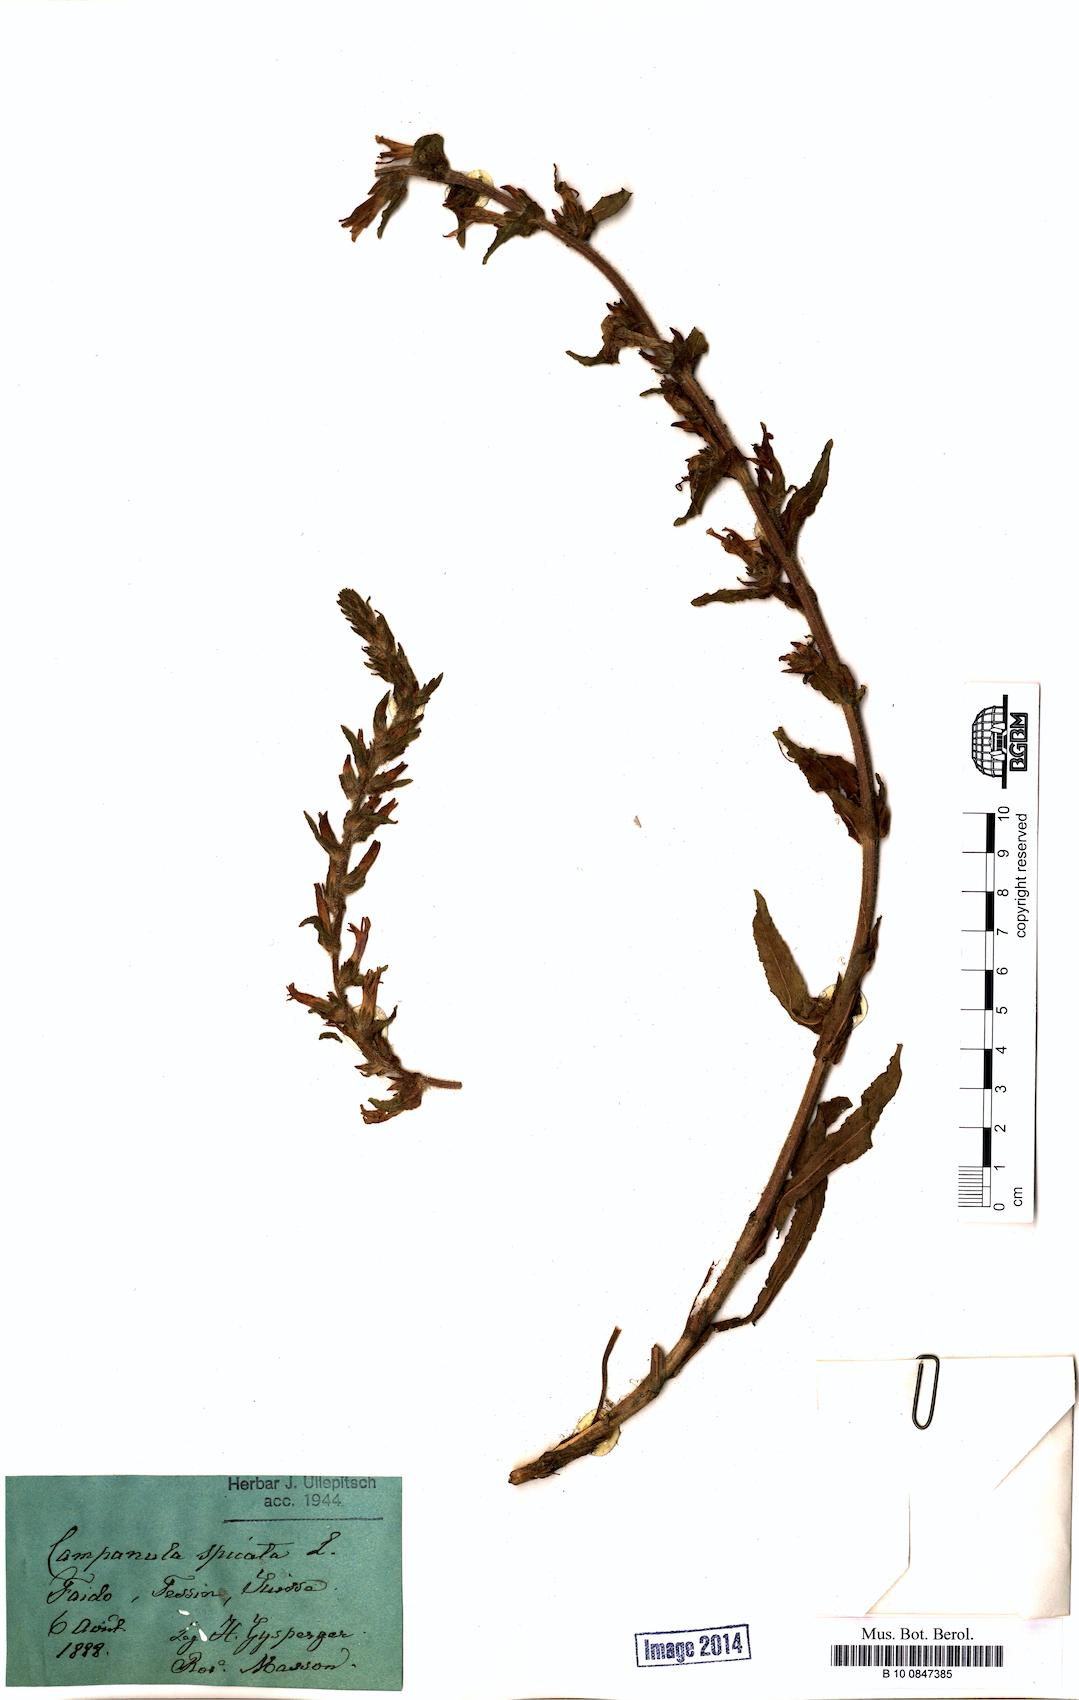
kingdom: Plantae
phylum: Tracheophyta
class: Magnoliopsida
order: Asterales
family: Campanulaceae
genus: Campanula
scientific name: Campanula spicata
